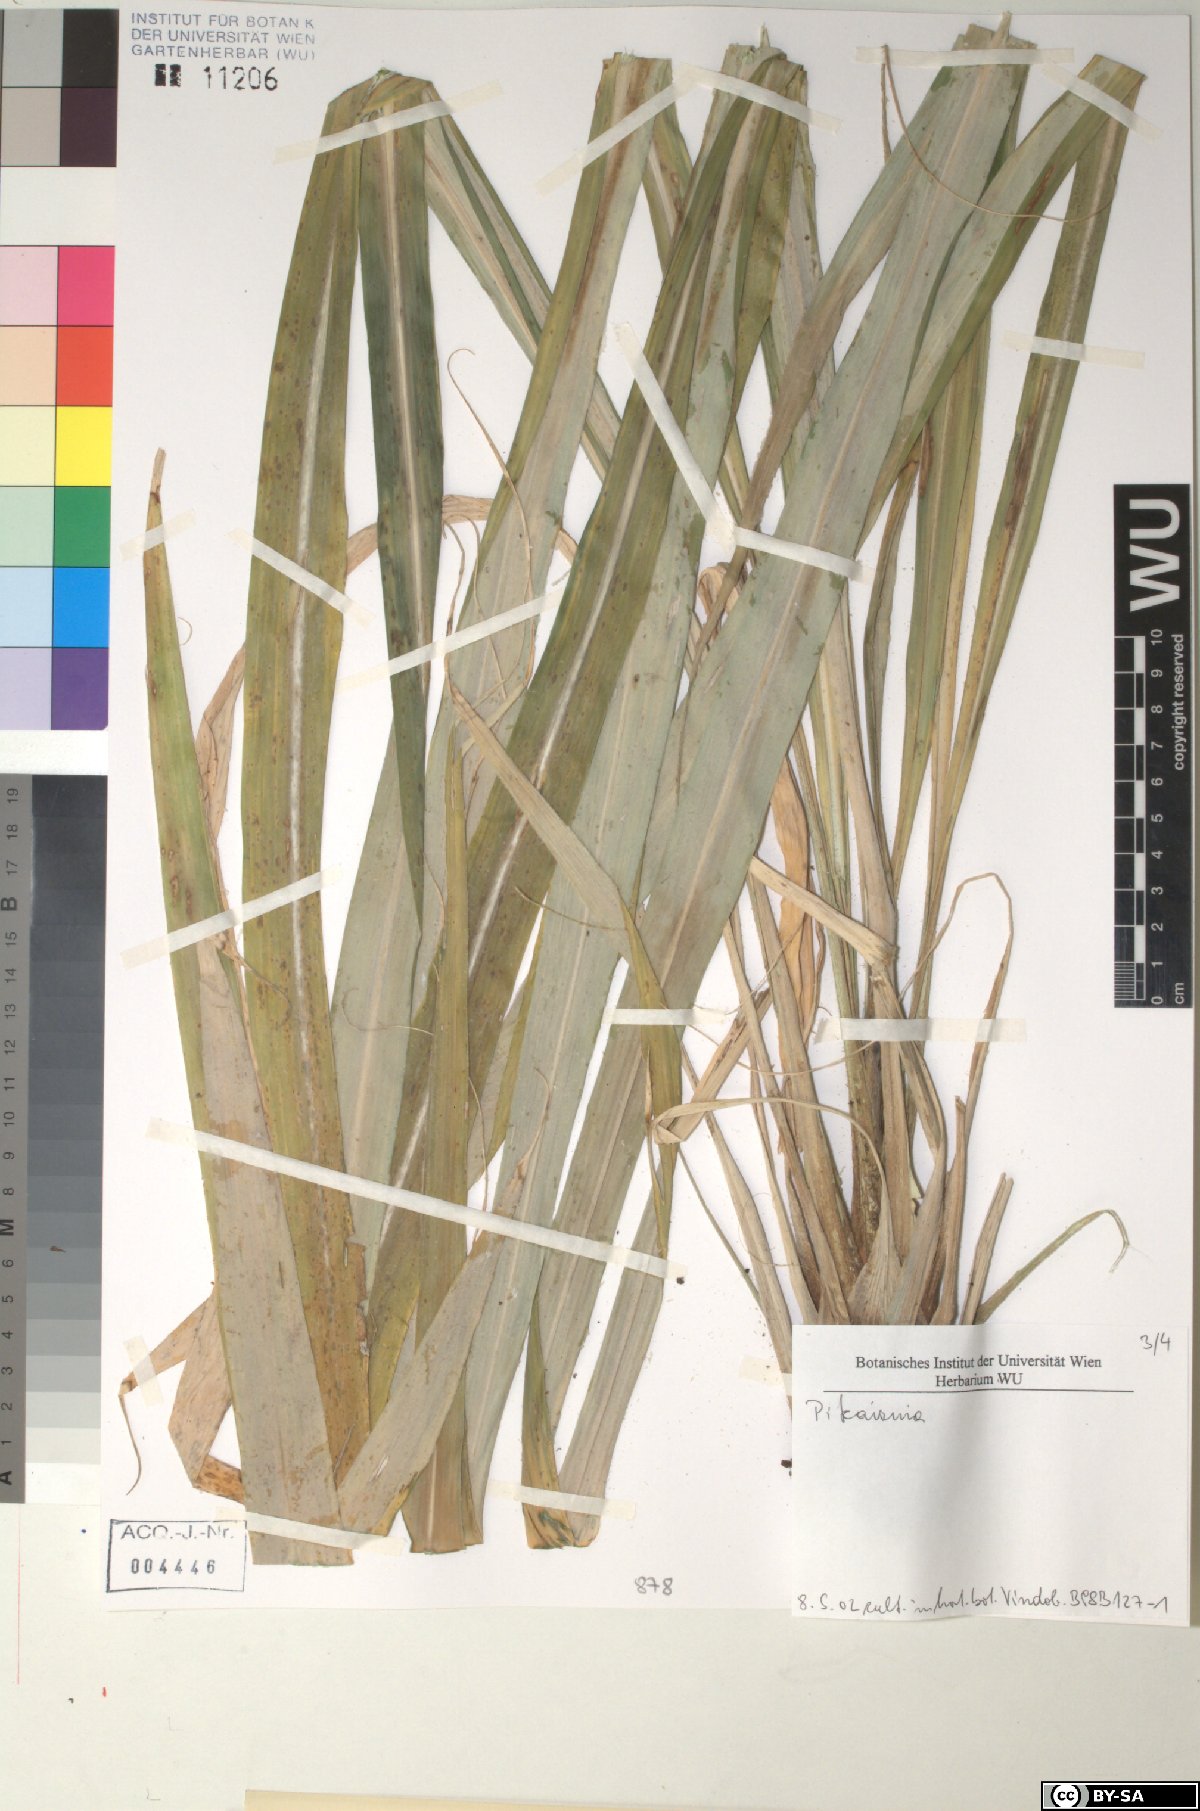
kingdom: Plantae
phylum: Tracheophyta
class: Liliopsida
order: Poales
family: Bromeliaceae
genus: Pitcairnia
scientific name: Pitcairnia
